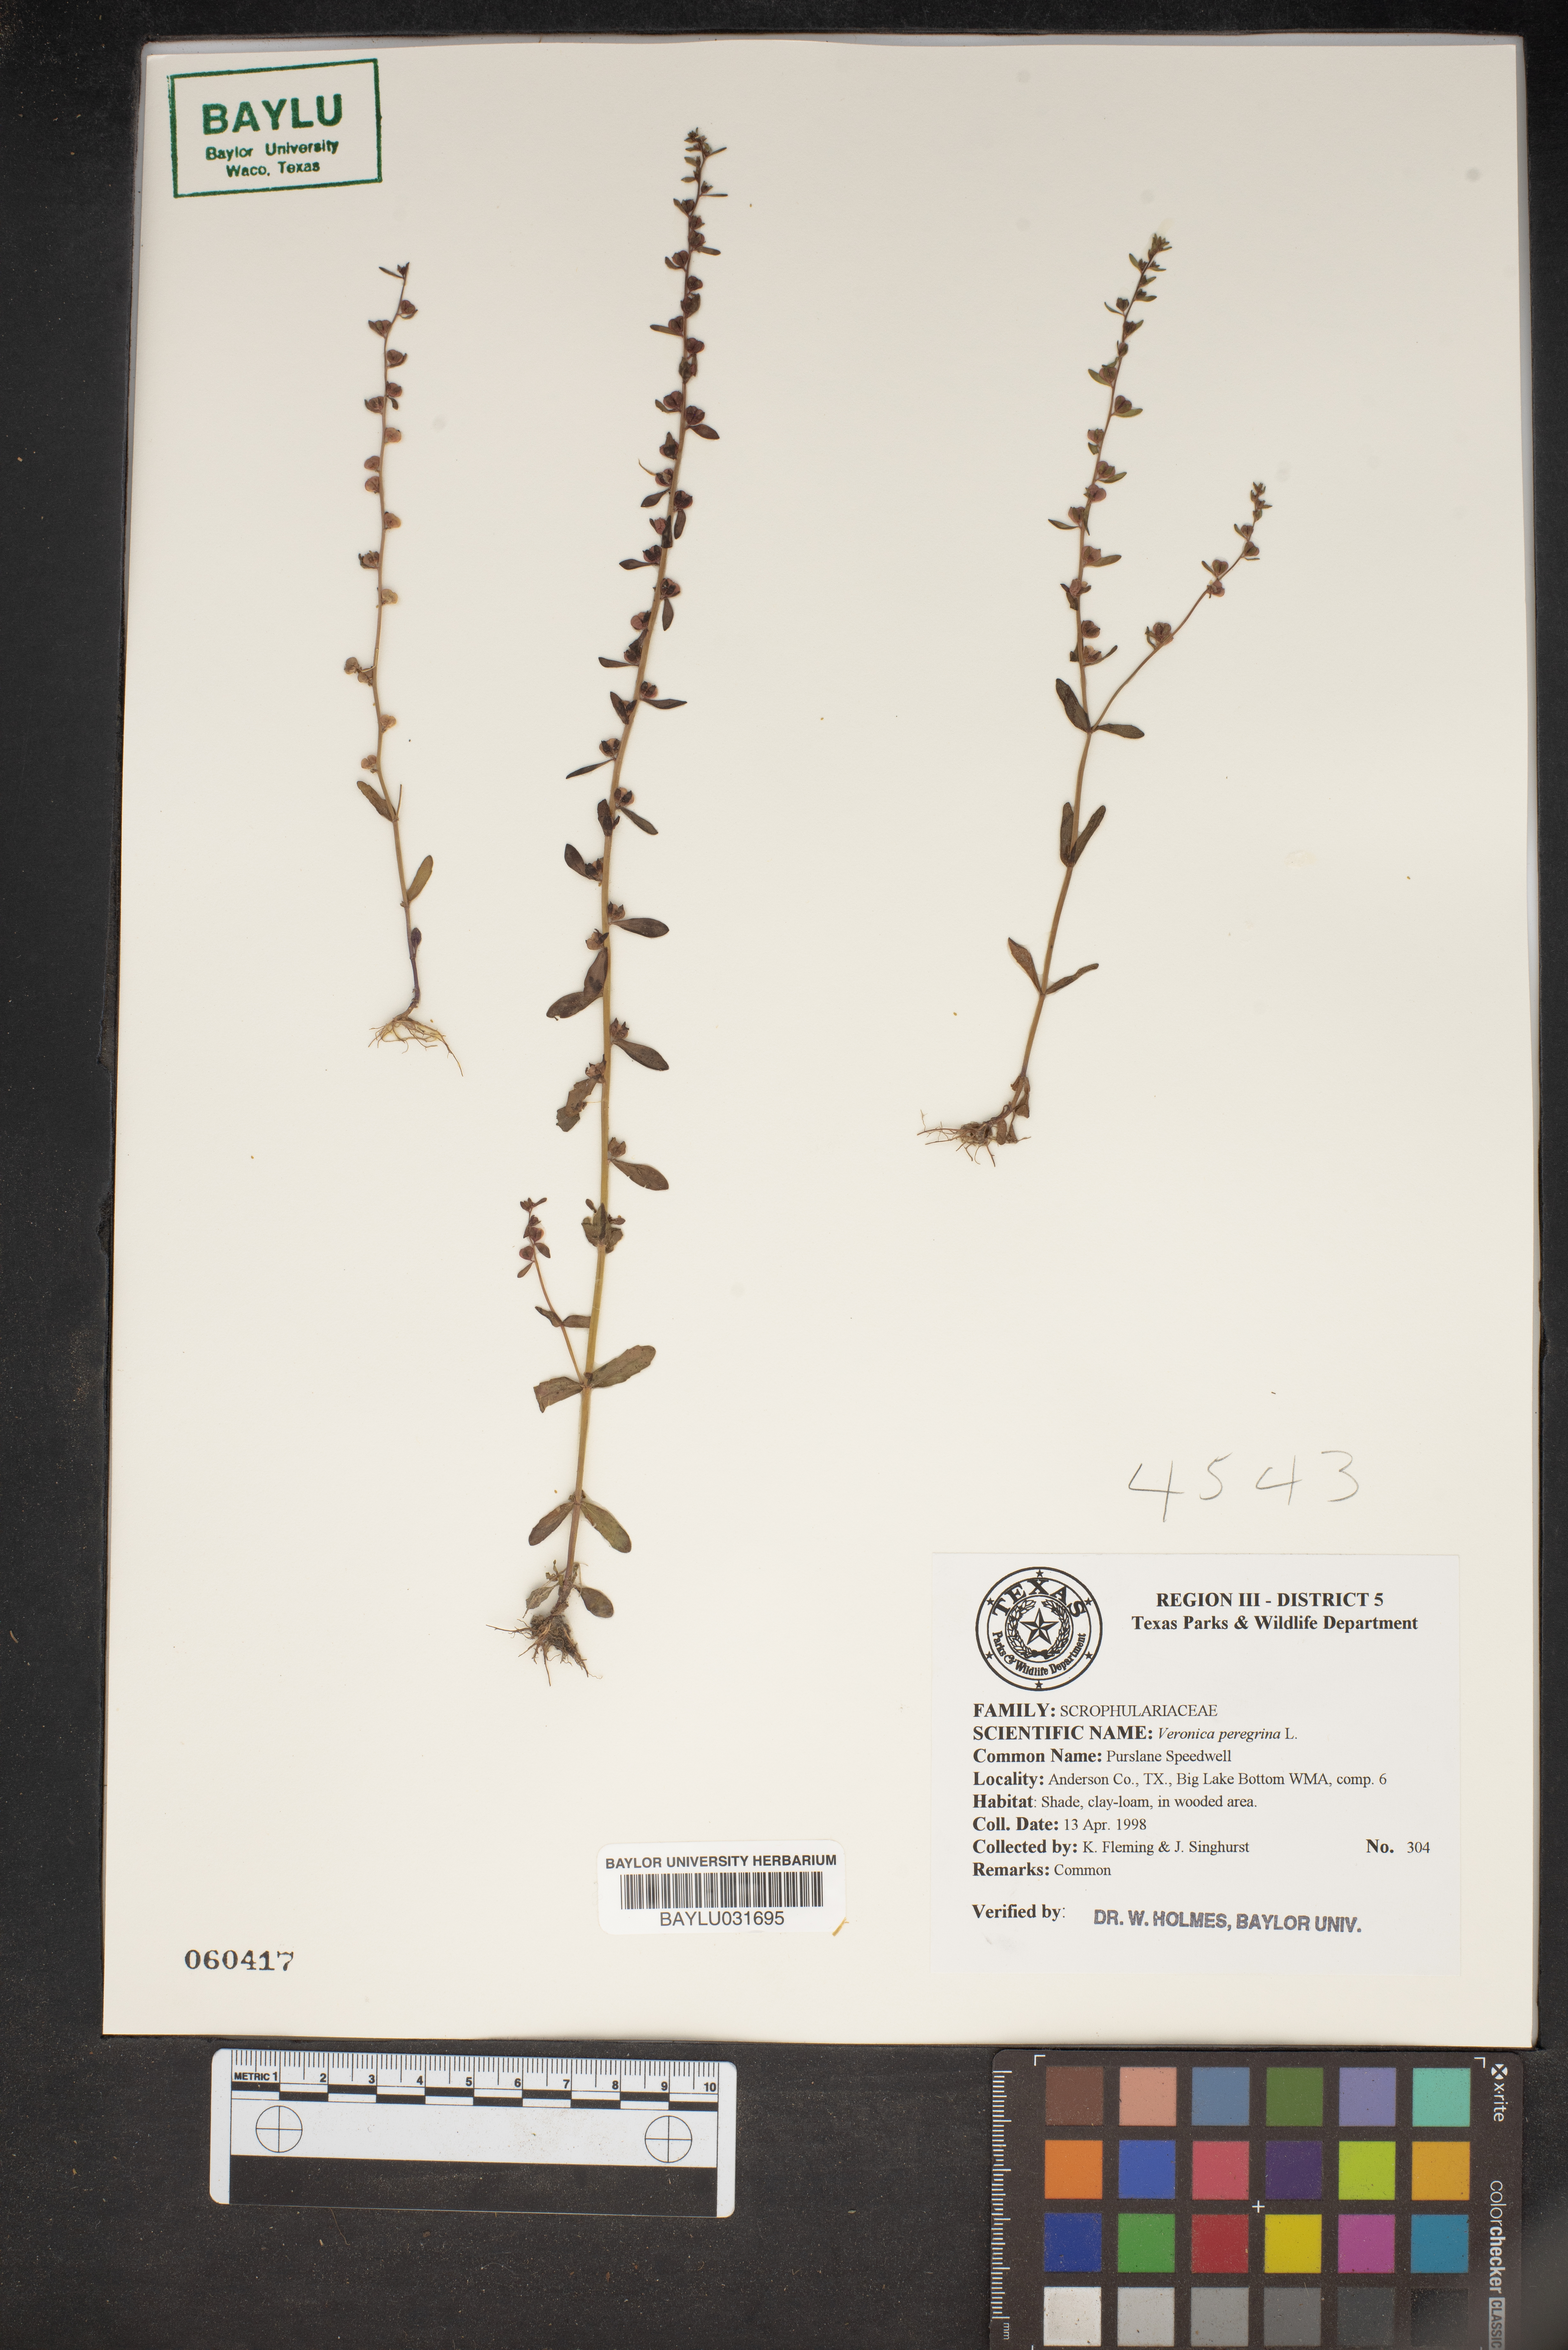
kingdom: Plantae
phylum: Tracheophyta
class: Magnoliopsida
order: Lamiales
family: Plantaginaceae
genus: Veronica
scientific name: Veronica peregrina
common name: Neckweed
